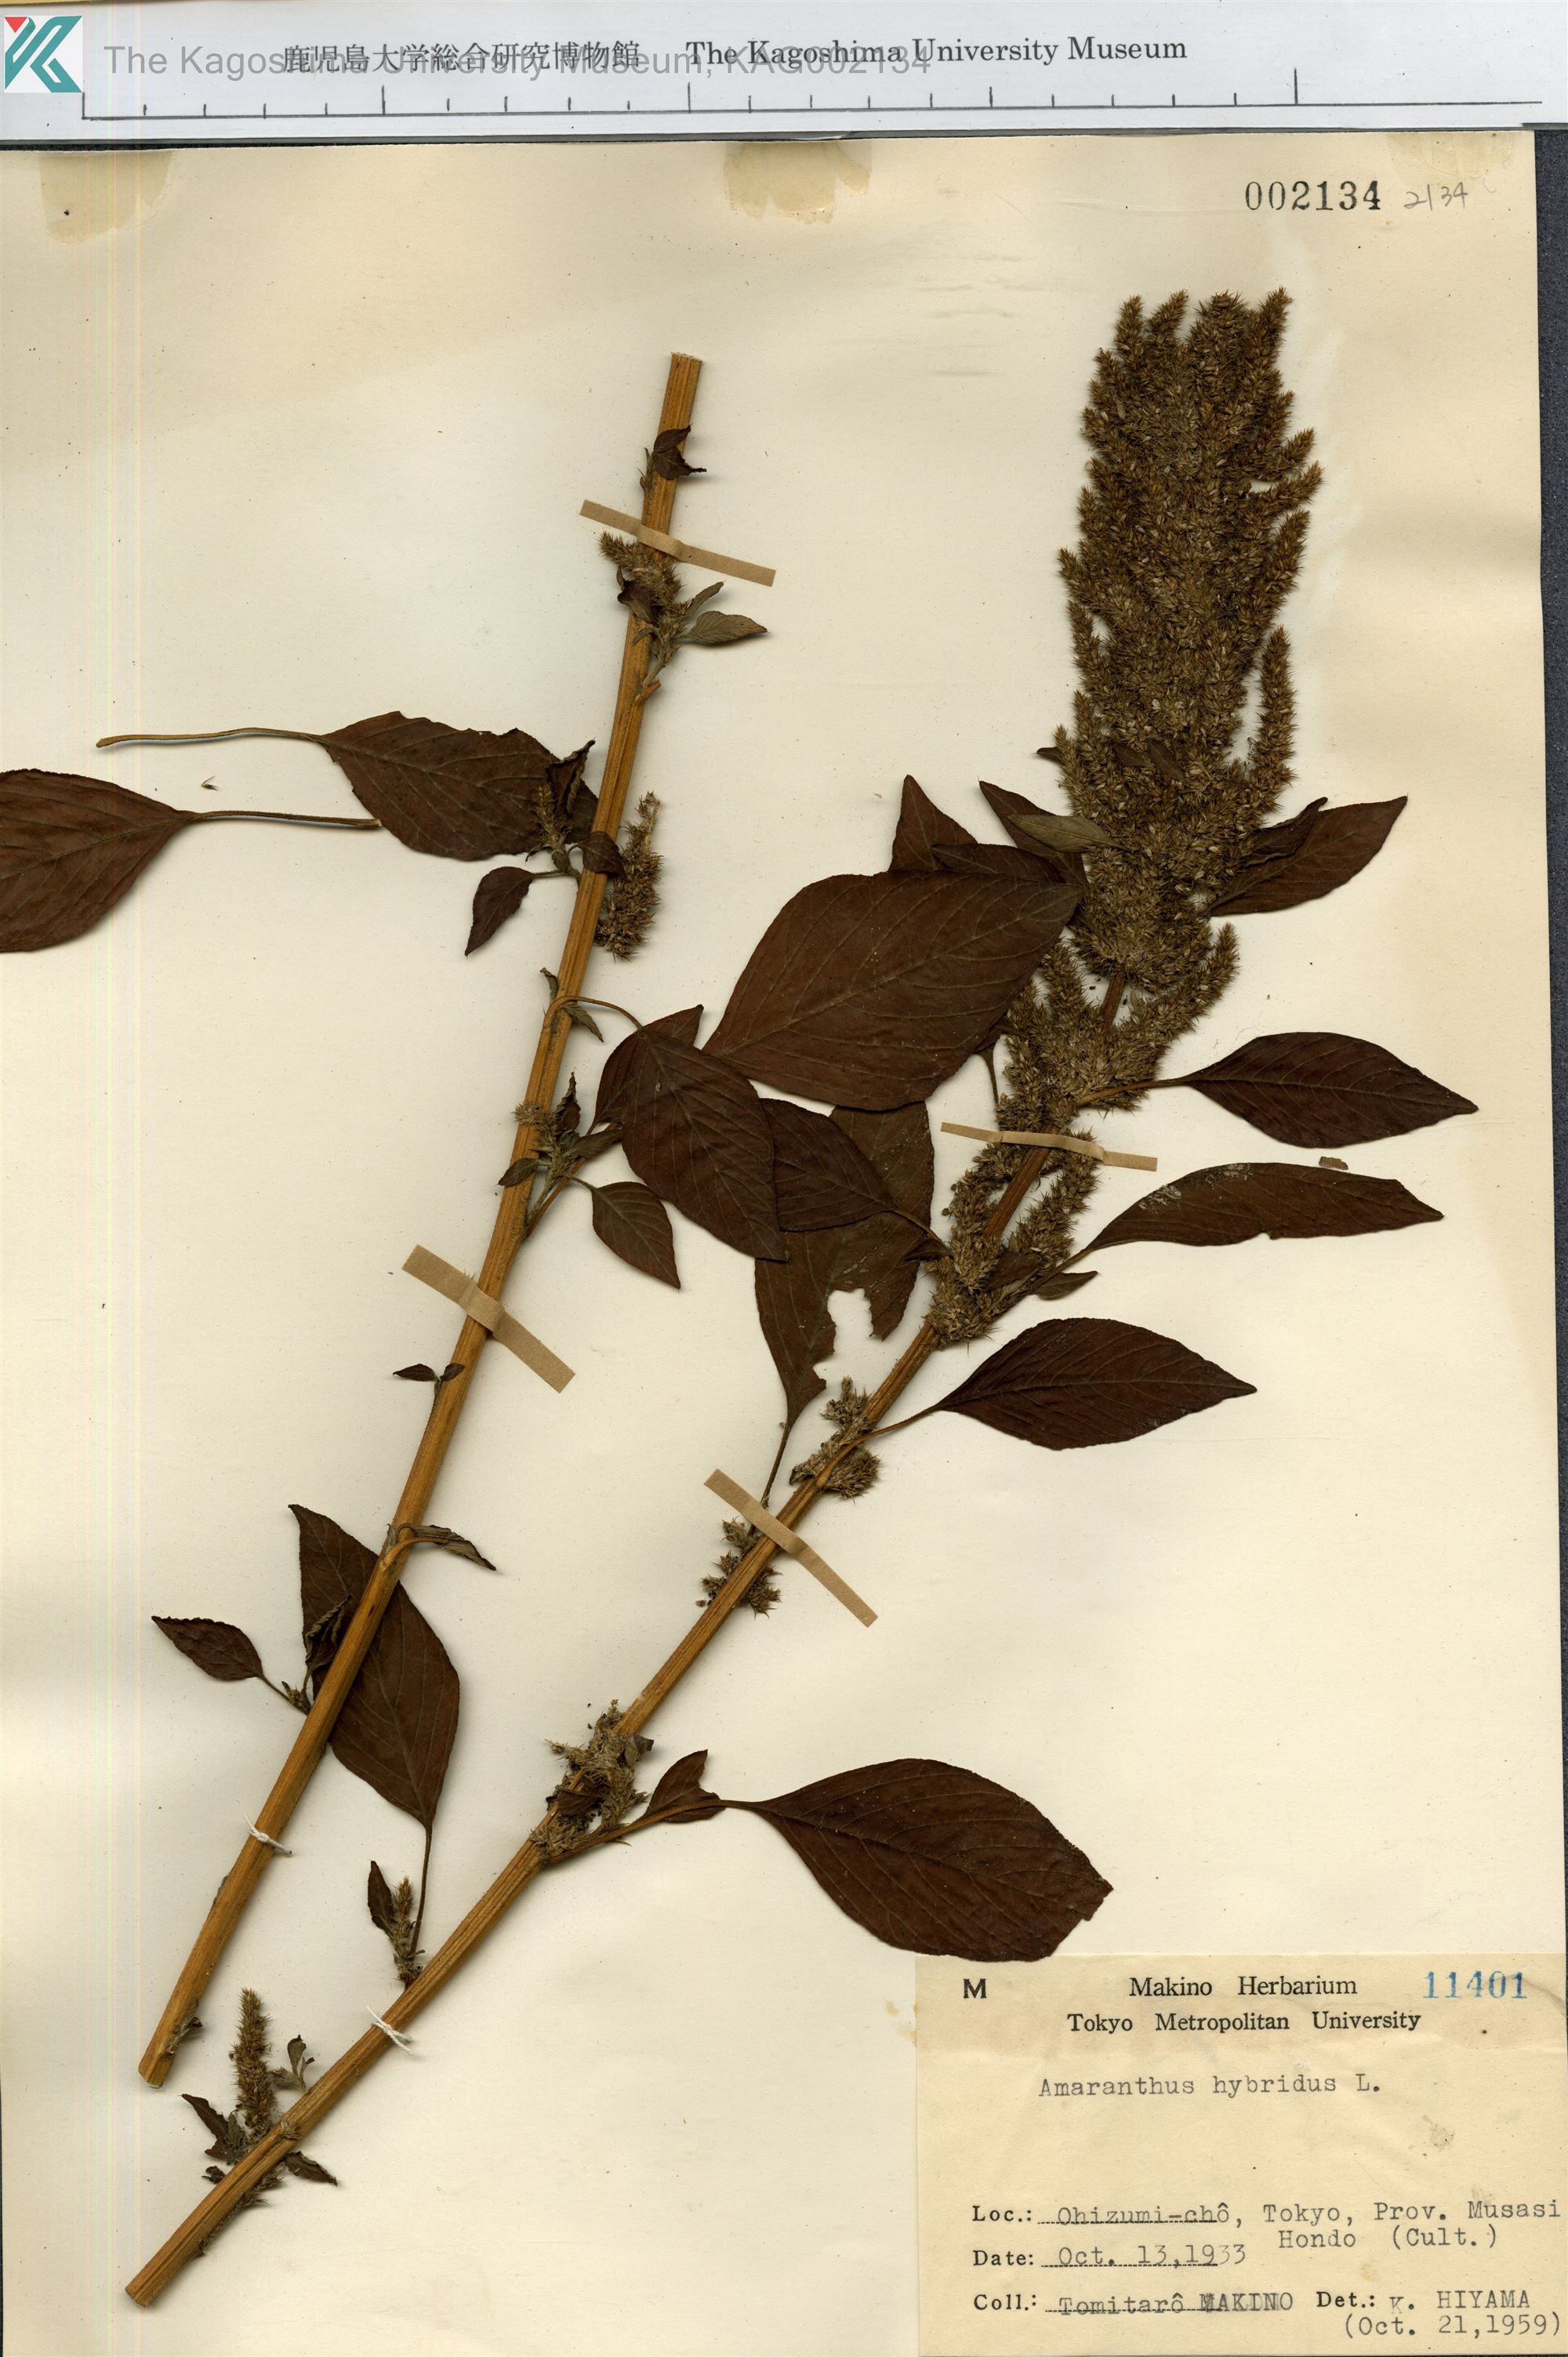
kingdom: Plantae
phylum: Tracheophyta
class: Magnoliopsida
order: Caryophyllales
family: Amaranthaceae
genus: Amaranthus
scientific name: Amaranthus hybridus
